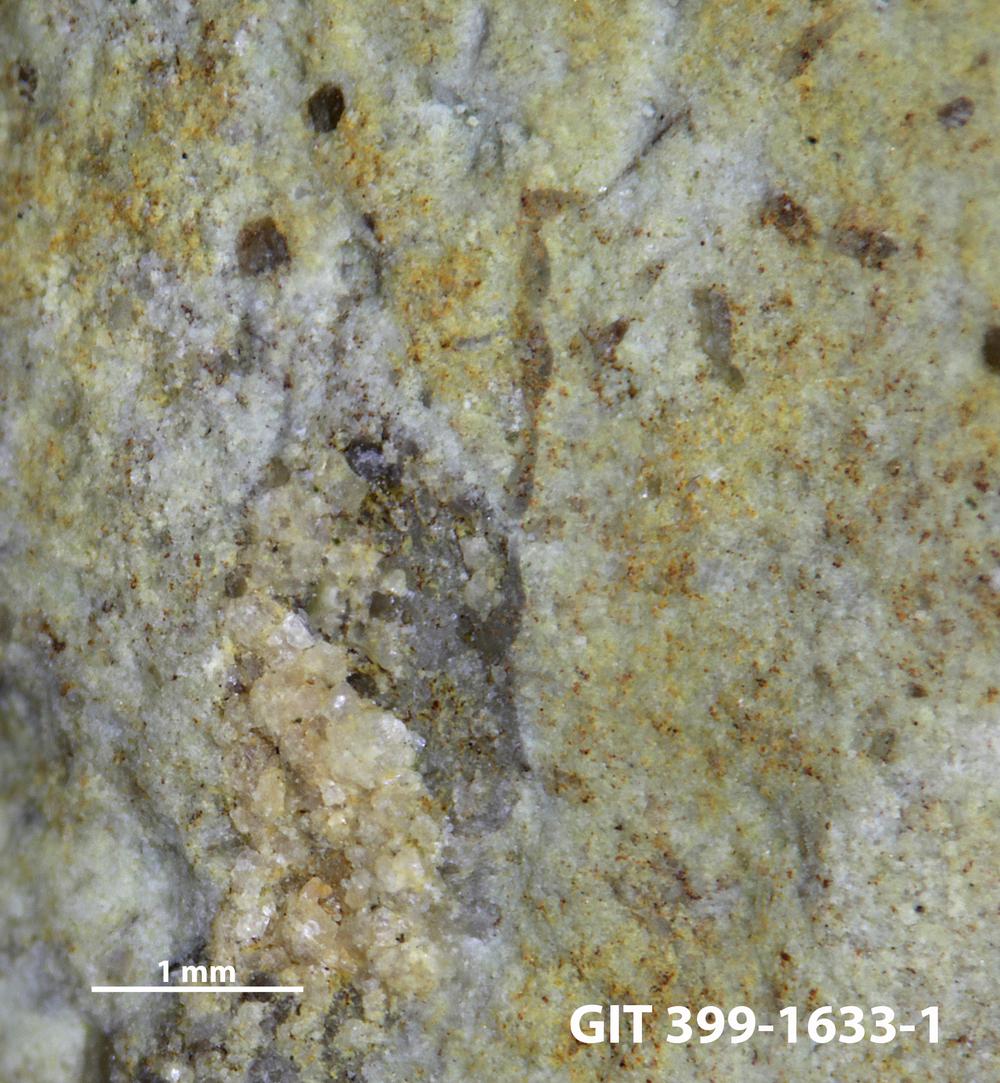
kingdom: Animalia
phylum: Bryozoa
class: Stenolaemata
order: Cyclostomatida
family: Corynotrypidae
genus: Corynotrypa
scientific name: Corynotrypa
